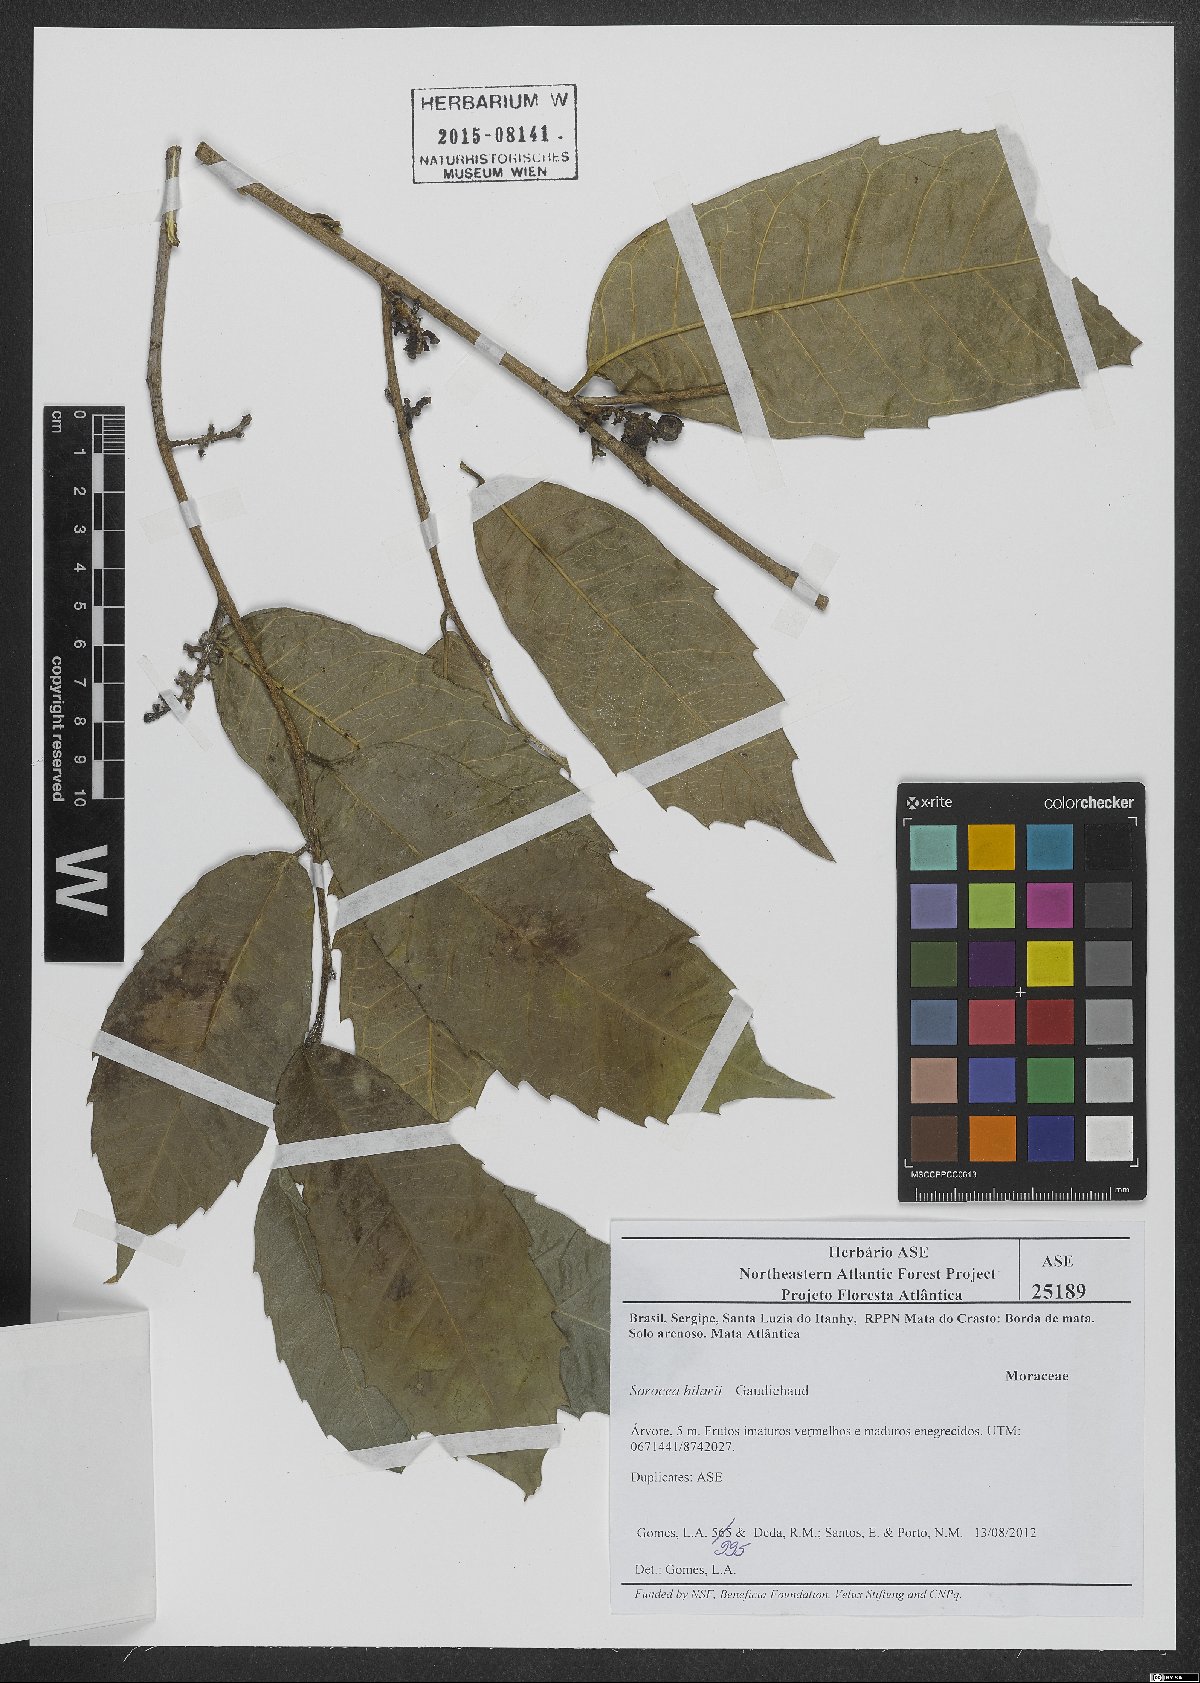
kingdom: Plantae
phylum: Tracheophyta
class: Magnoliopsida
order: Rosales
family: Moraceae
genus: Sorocea
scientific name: Sorocea hilarii
